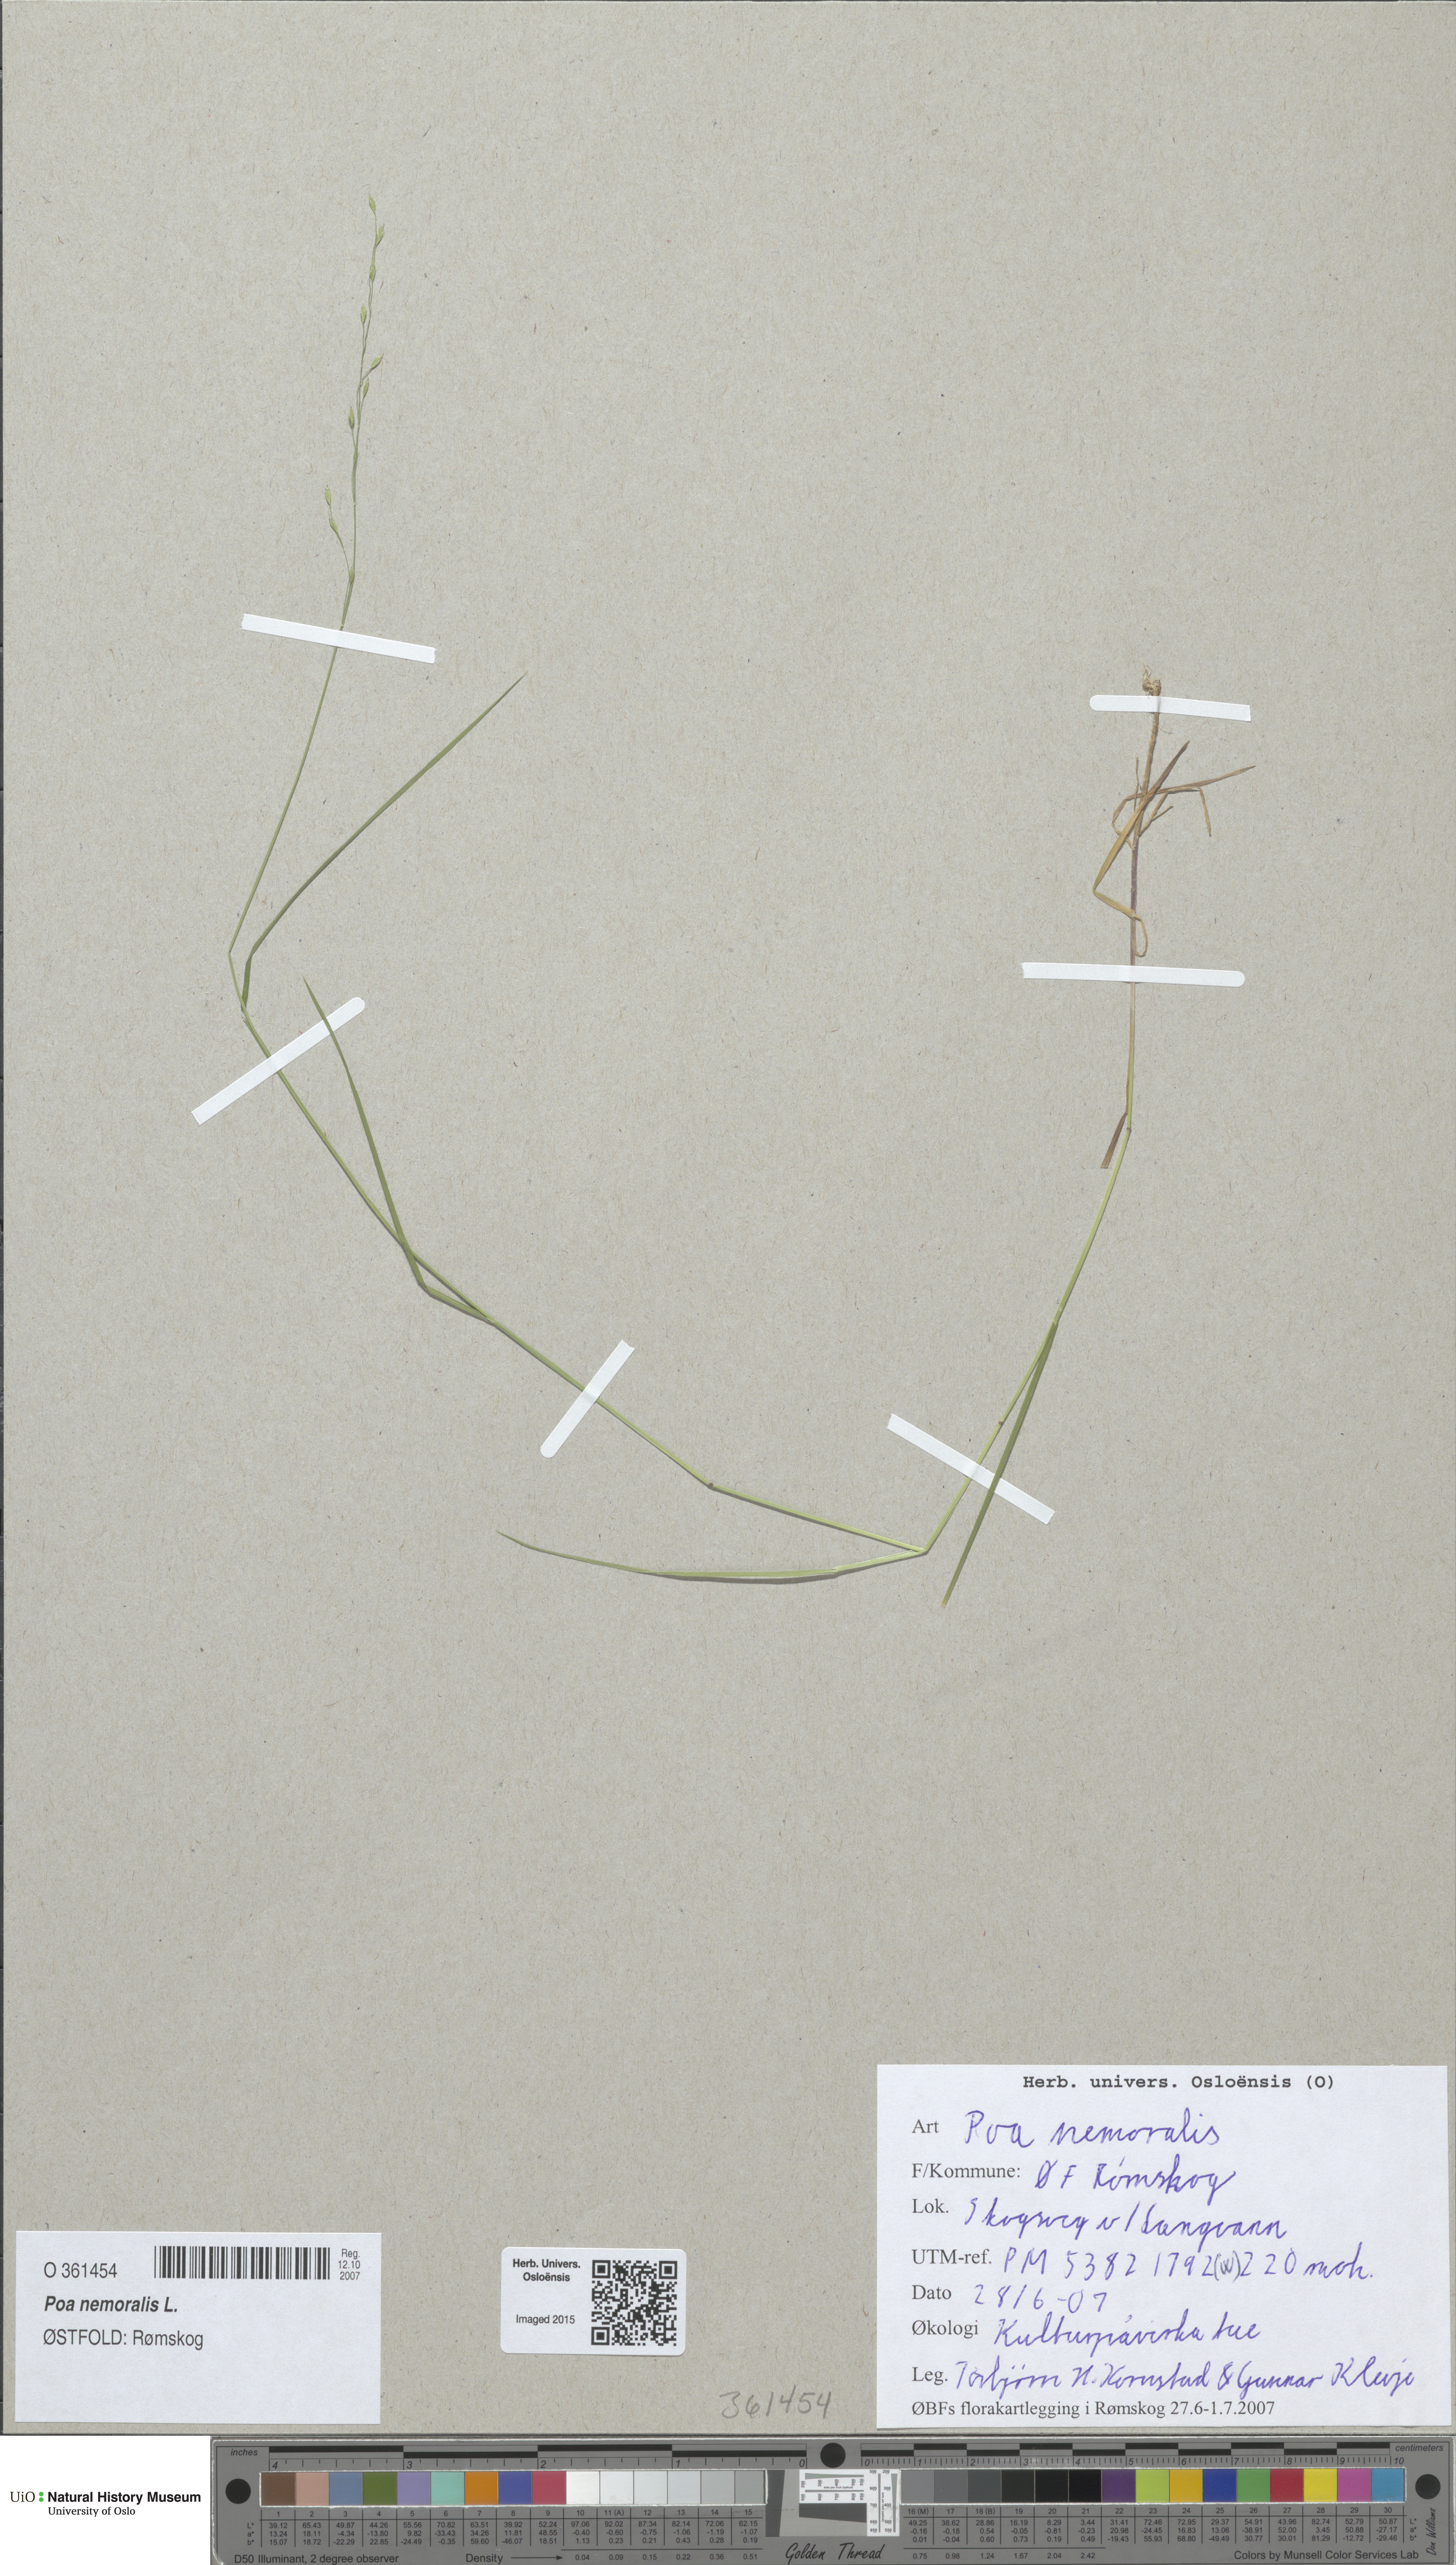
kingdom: Plantae
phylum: Tracheophyta
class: Liliopsida
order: Poales
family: Poaceae
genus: Poa
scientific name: Poa nemoralis
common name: Wood bluegrass
